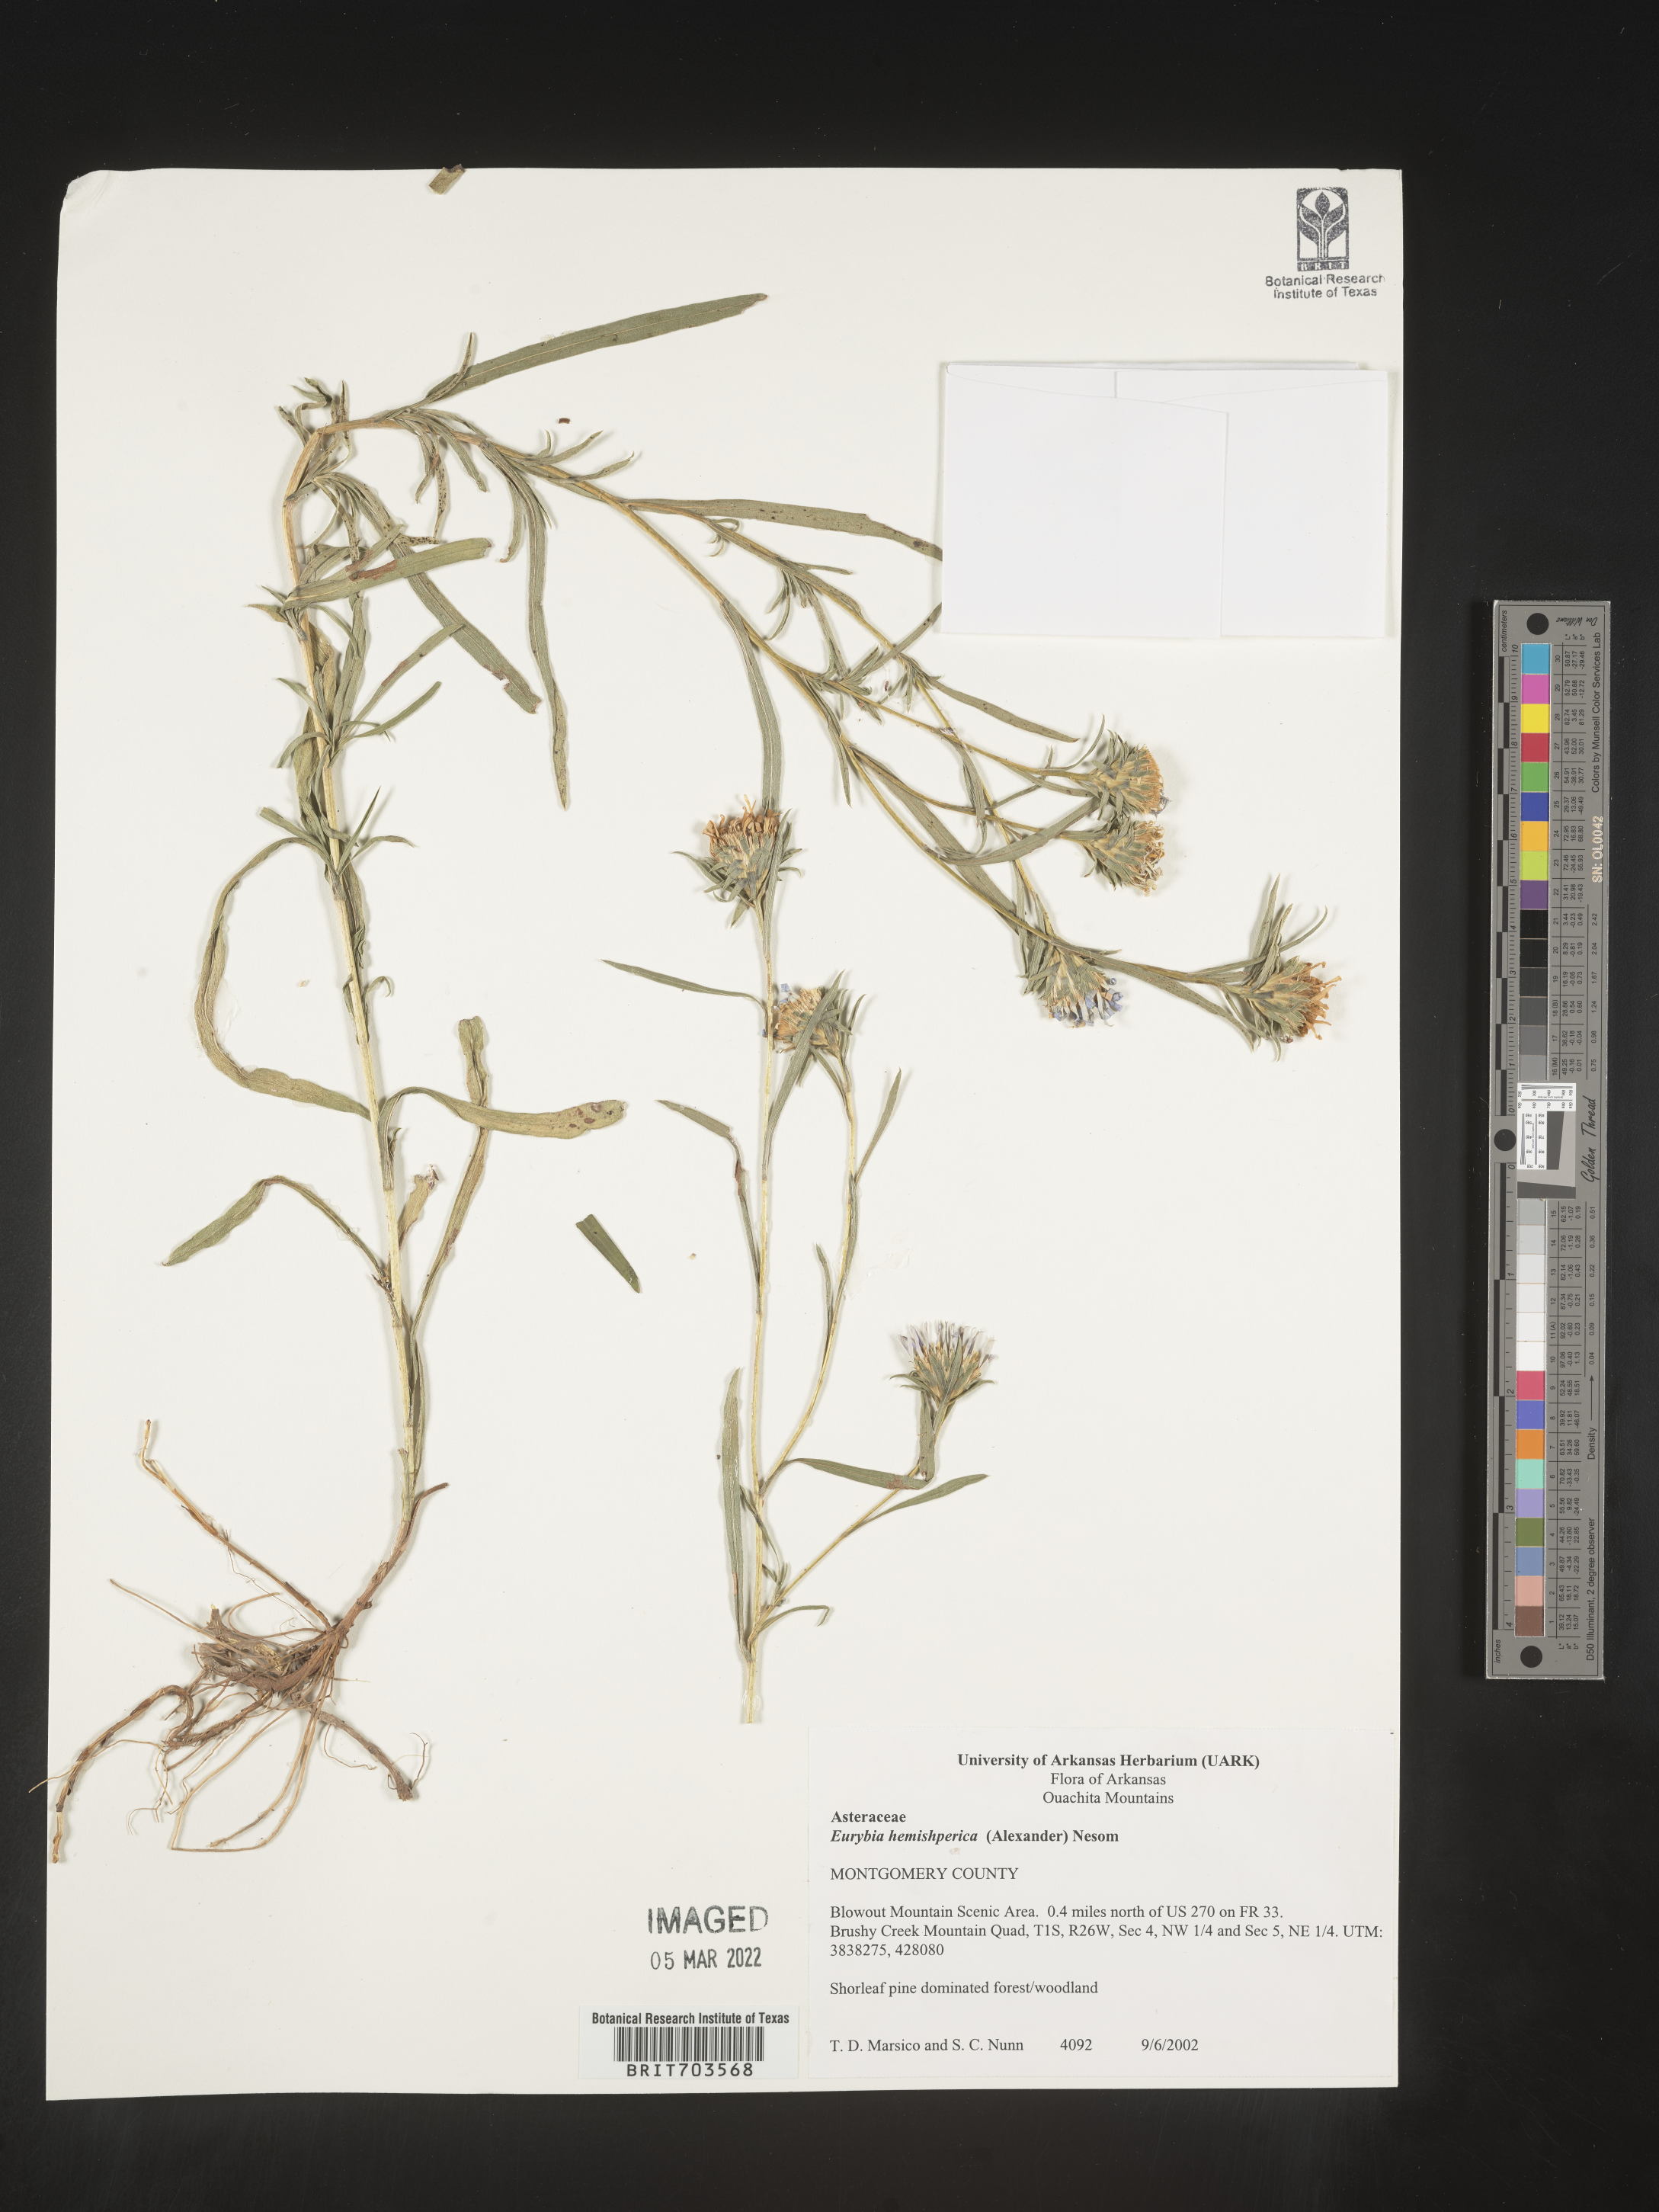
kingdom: Plantae
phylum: Tracheophyta
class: Magnoliopsida
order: Asterales
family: Asteraceae
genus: Eurybia
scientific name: Eurybia hemispherica
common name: Showy aster
